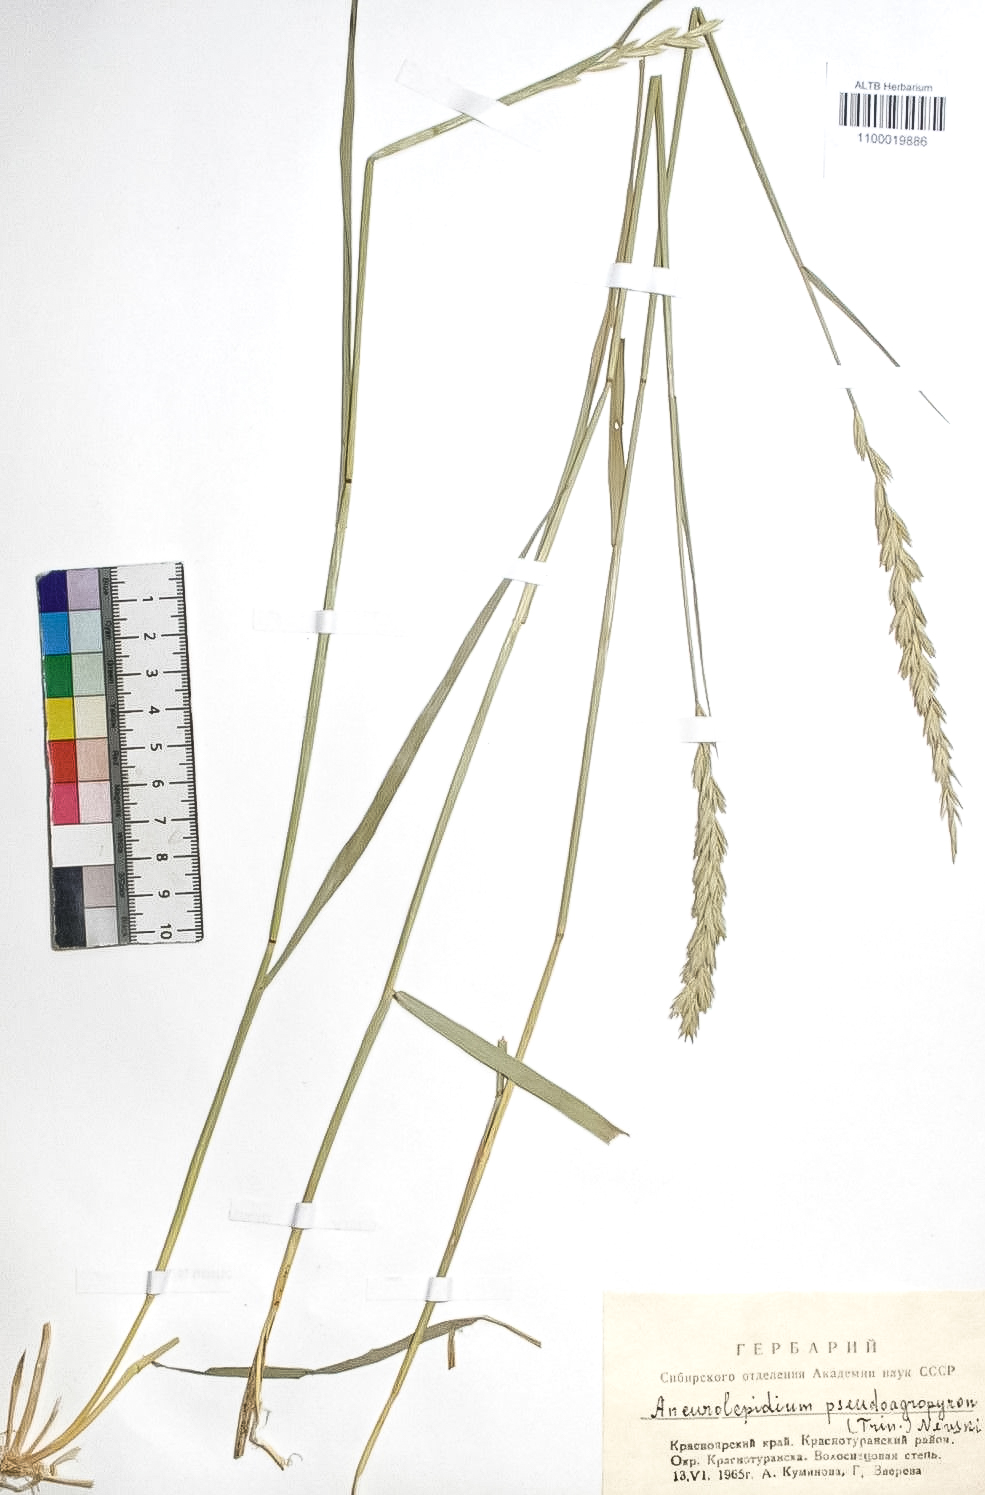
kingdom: Plantae
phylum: Tracheophyta
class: Liliopsida
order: Poales
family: Poaceae
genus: Leymus
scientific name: Leymus chinensis
